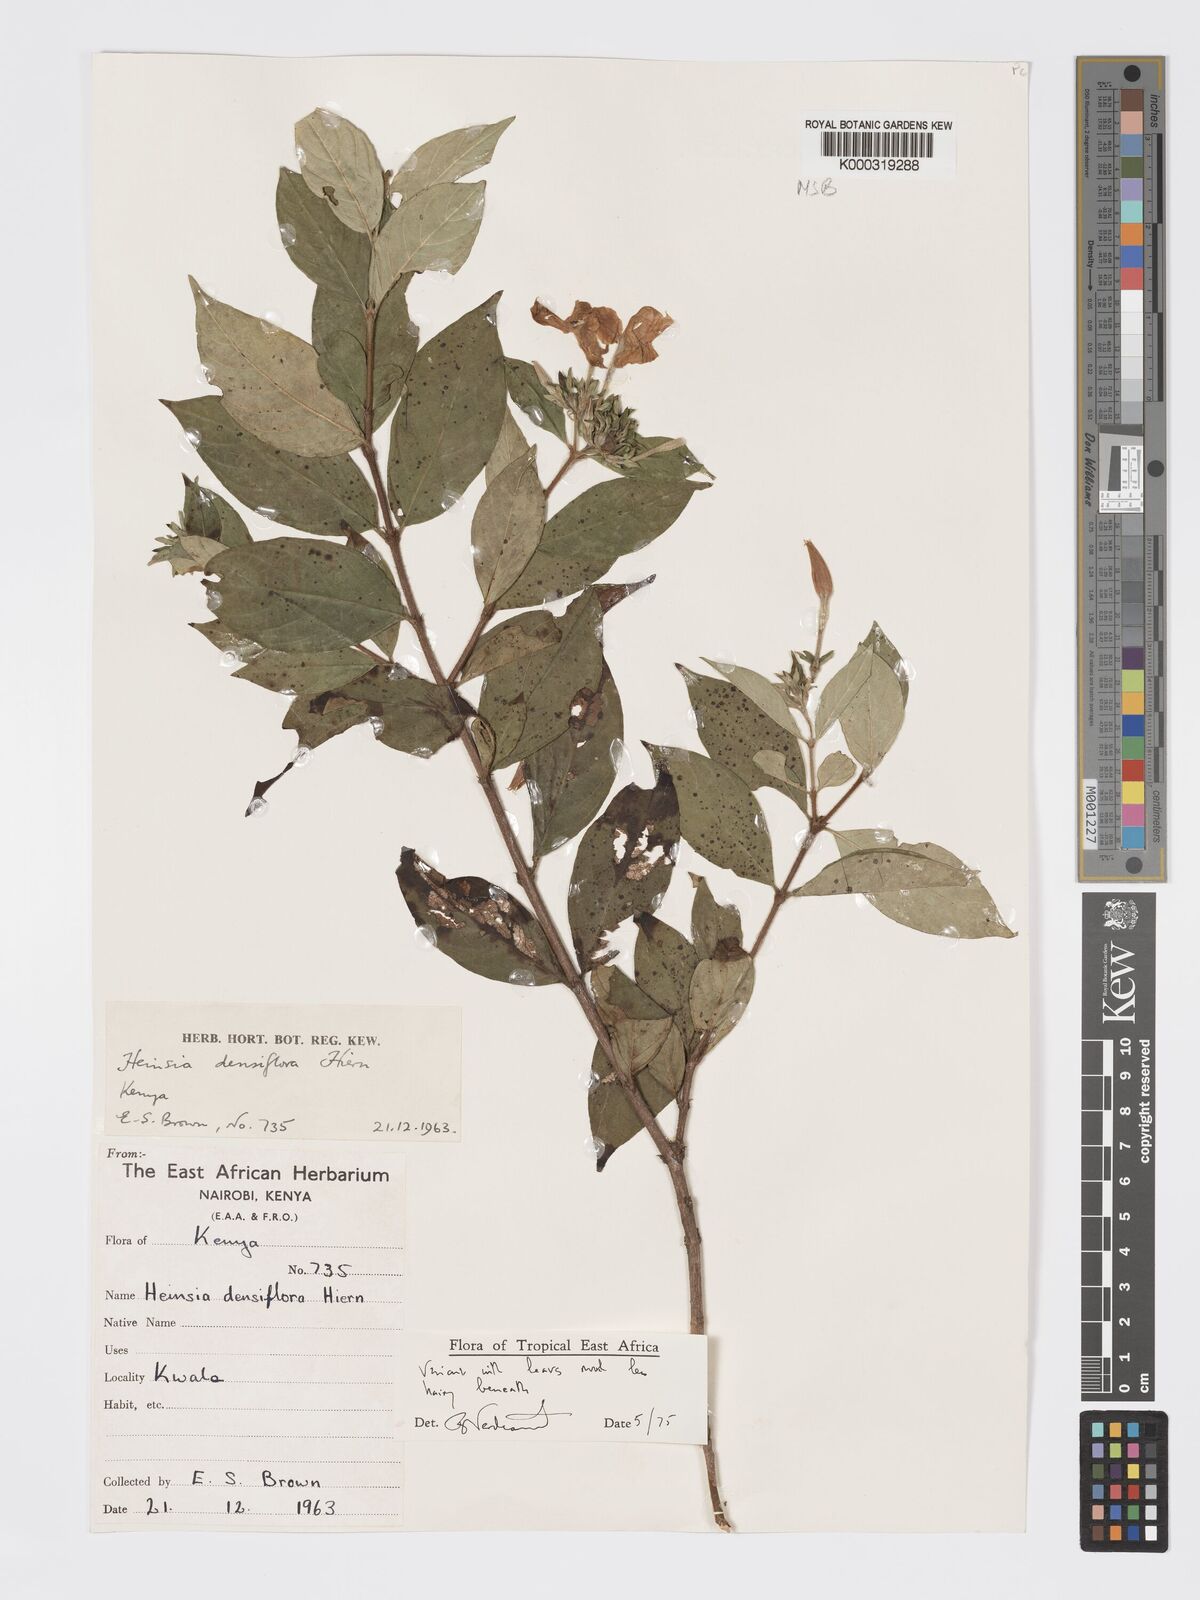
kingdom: Plantae
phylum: Tracheophyta
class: Magnoliopsida
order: Gentianales
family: Rubiaceae
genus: Heinsia
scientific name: Heinsia zanzibarica
